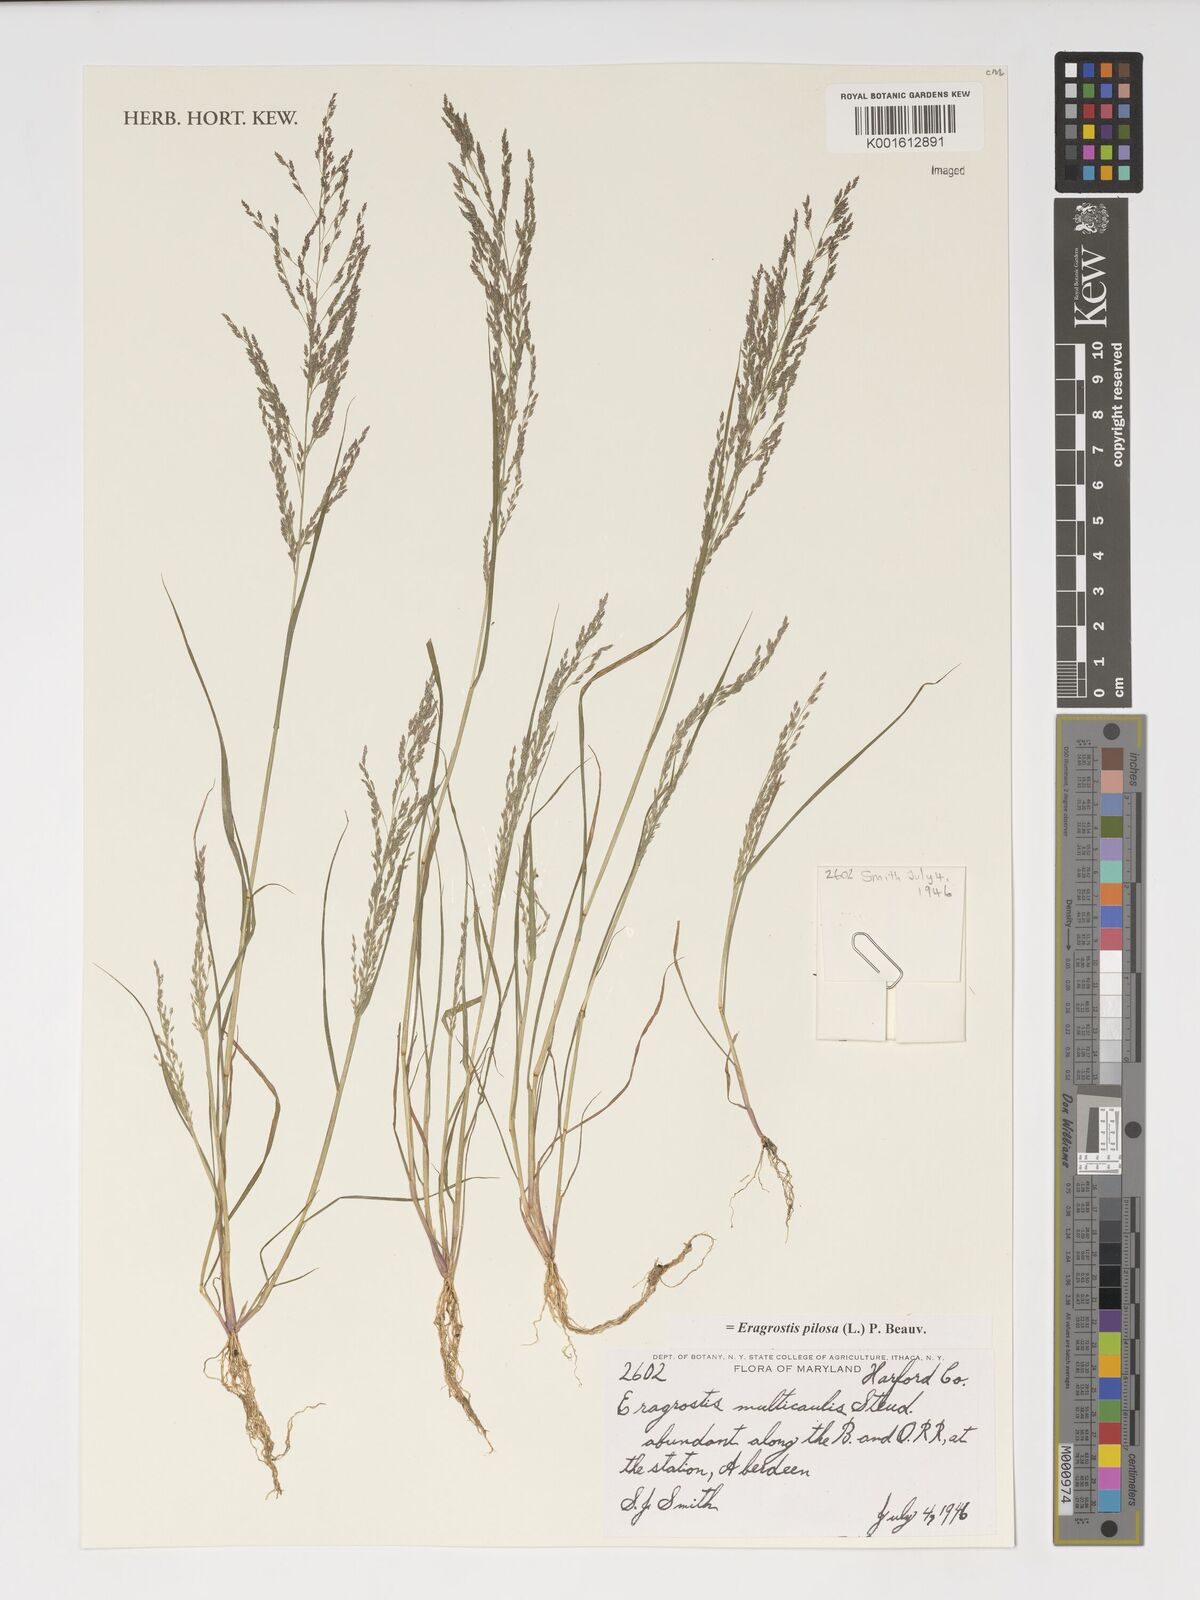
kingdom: Plantae
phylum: Tracheophyta
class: Liliopsida
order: Poales
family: Poaceae
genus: Eragrostis
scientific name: Eragrostis pilosa
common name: Indian lovegrass
